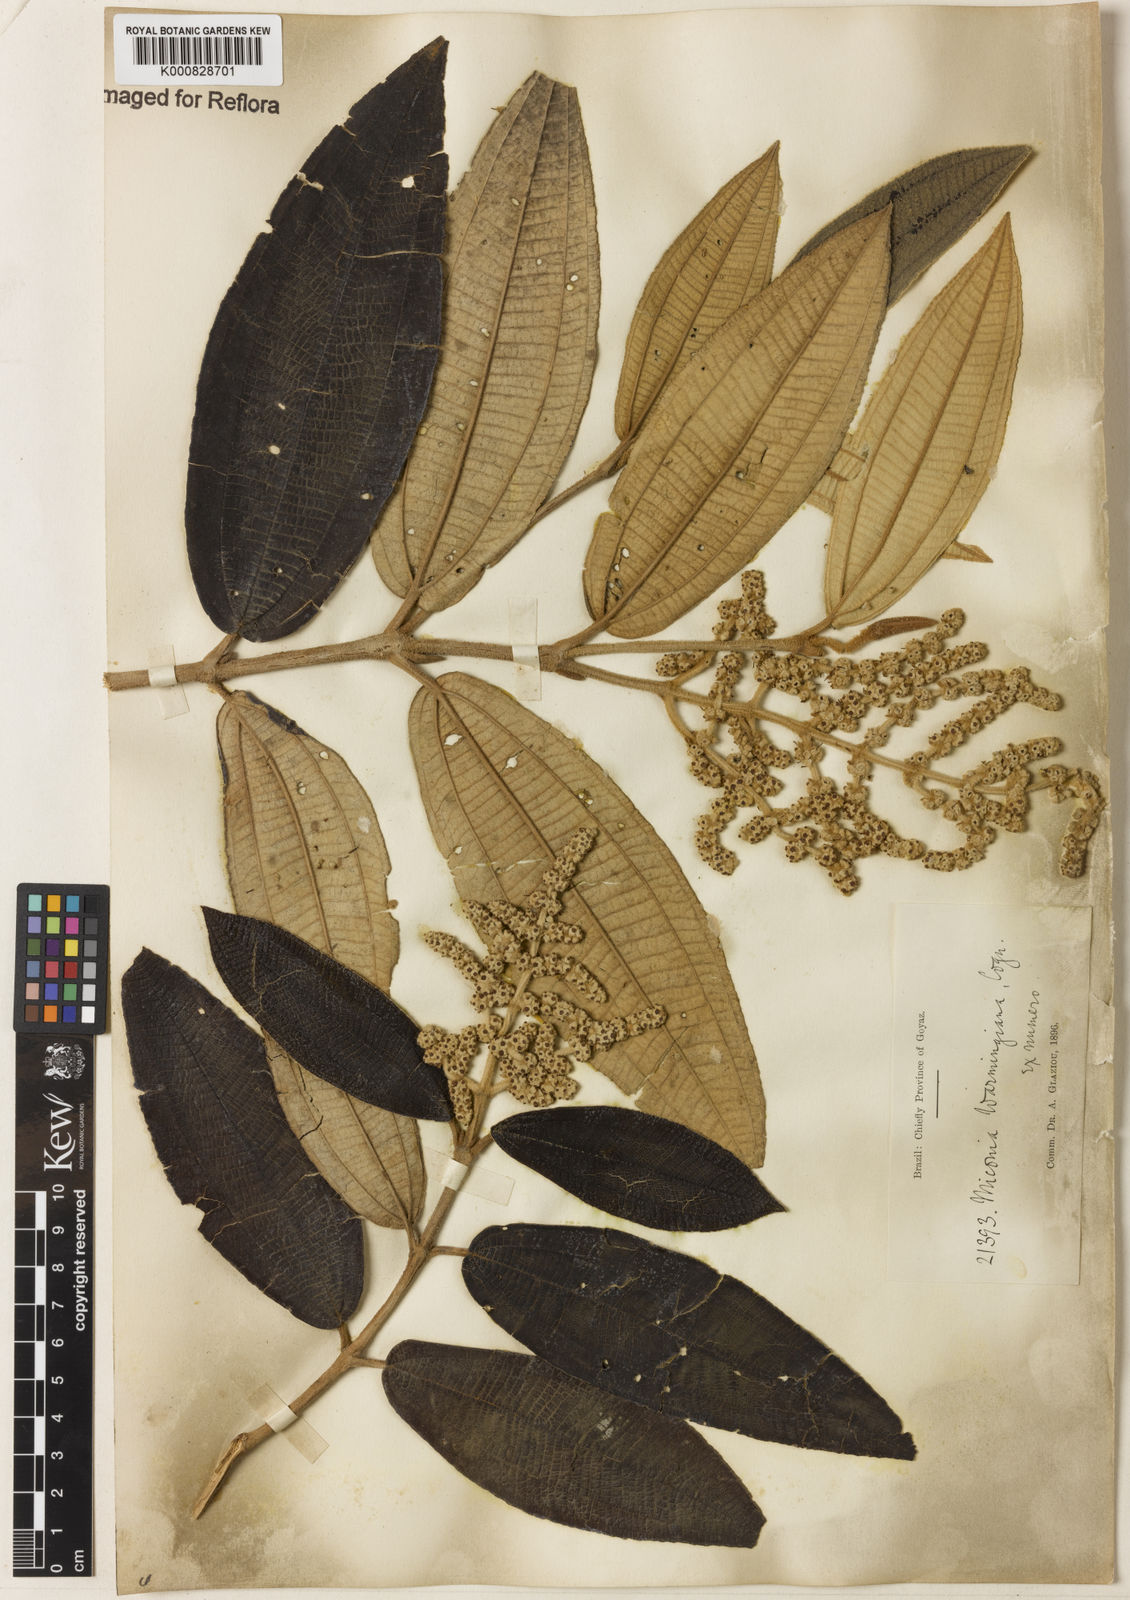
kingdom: Plantae
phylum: Tracheophyta
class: Magnoliopsida
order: Myrtales
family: Melastomataceae
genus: Miconia
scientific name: Miconia warmingiana
